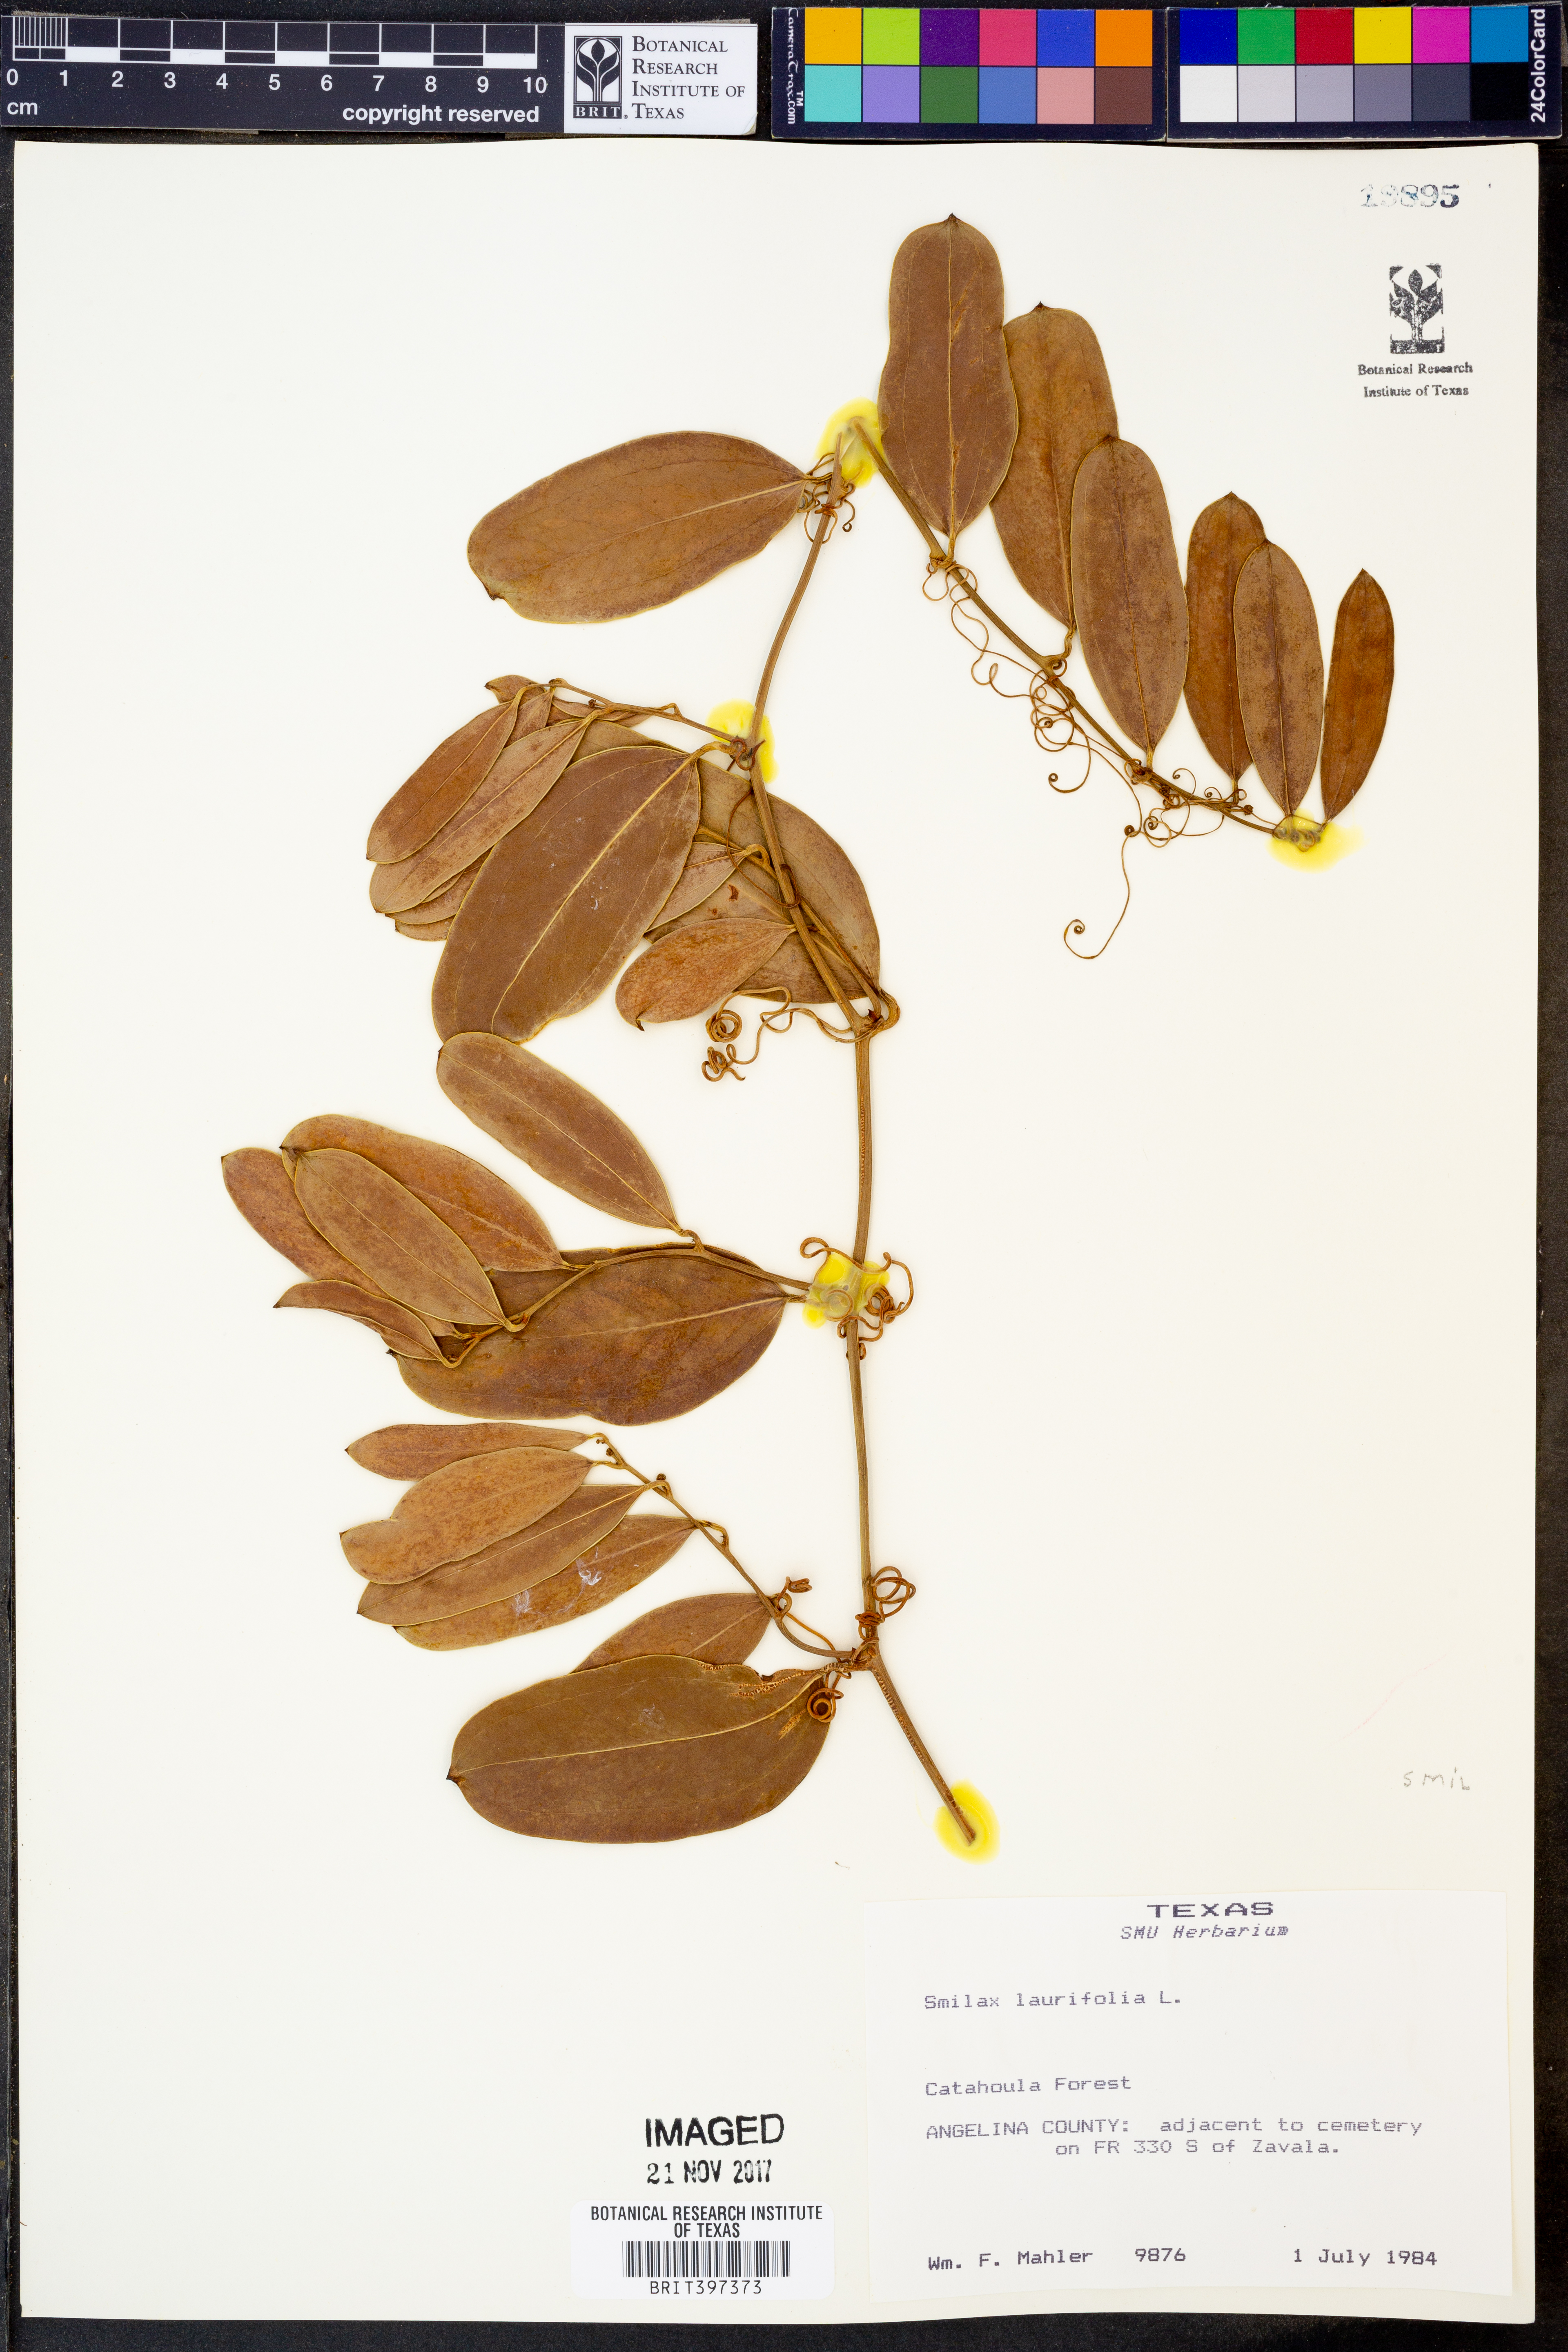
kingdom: Plantae
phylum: Tracheophyta
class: Liliopsida
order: Liliales
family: Smilacaceae
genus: Smilax
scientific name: Smilax laurifolia
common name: Bamboovine
